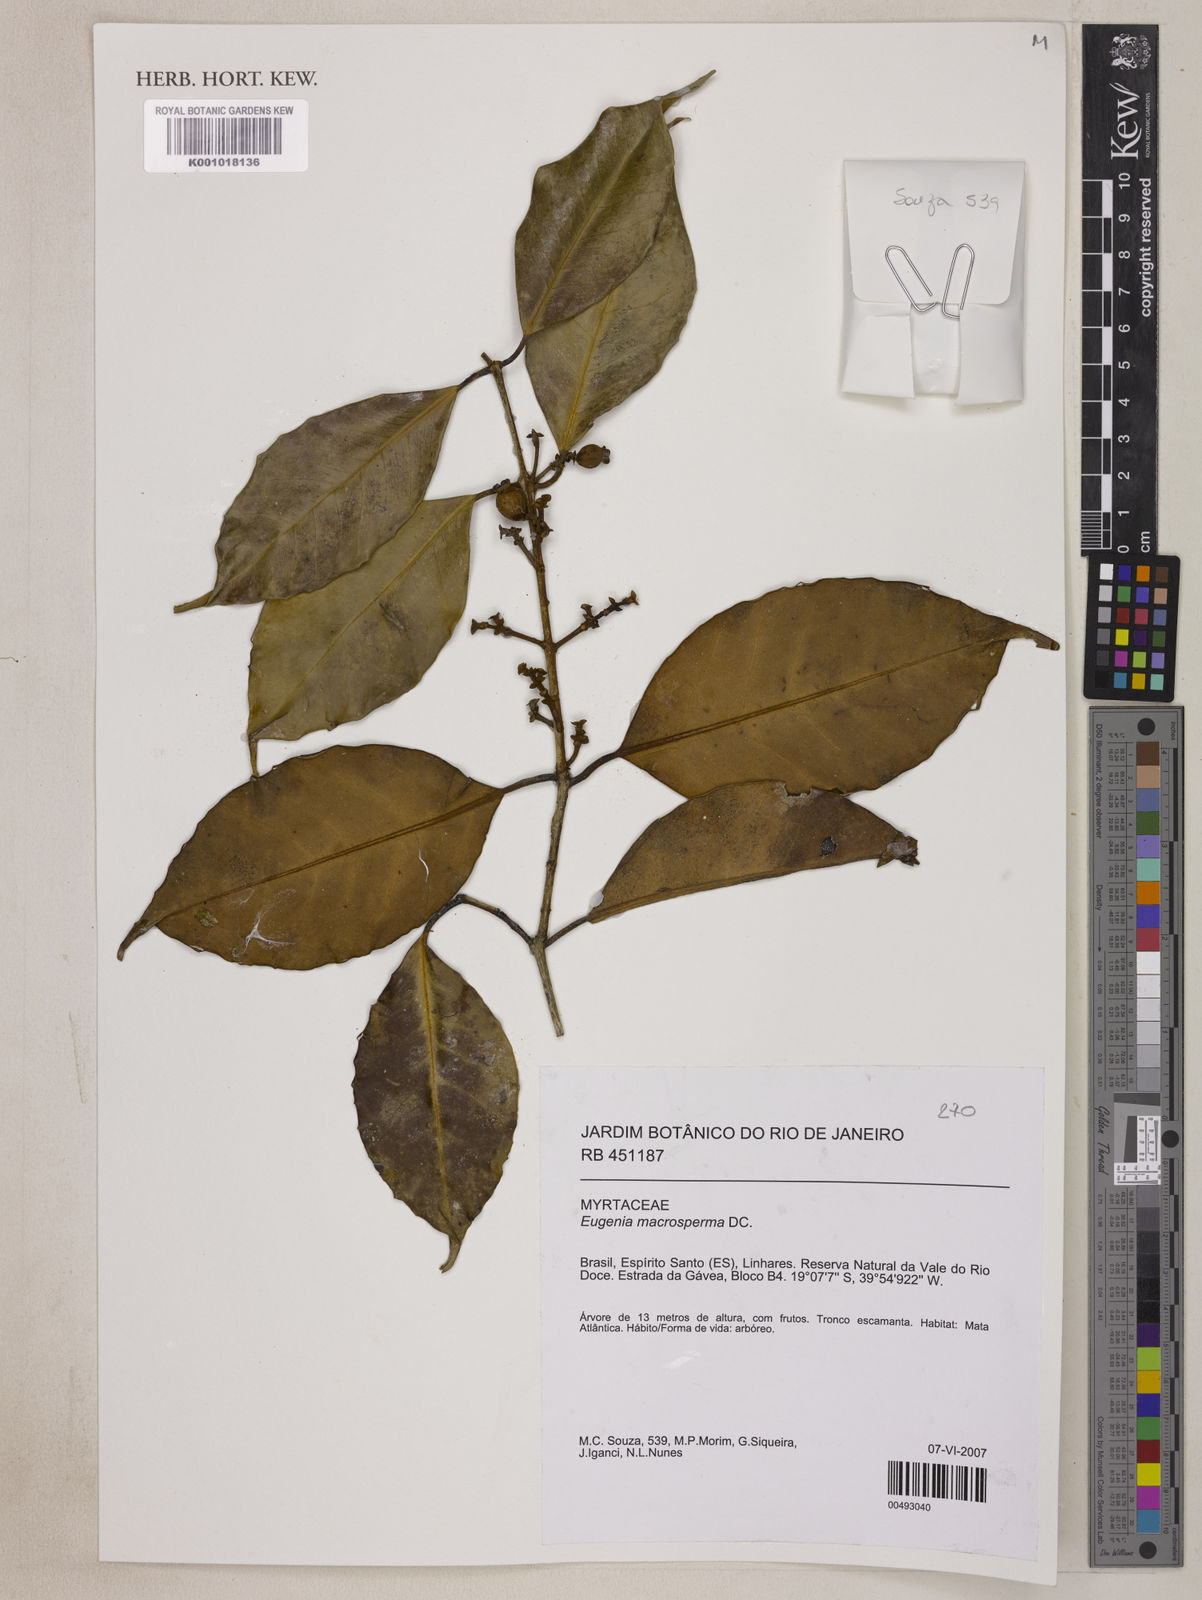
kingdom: Plantae
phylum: Tracheophyta
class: Magnoliopsida
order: Myrtales
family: Myrtaceae
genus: Eugenia
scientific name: Eugenia macrosperma
